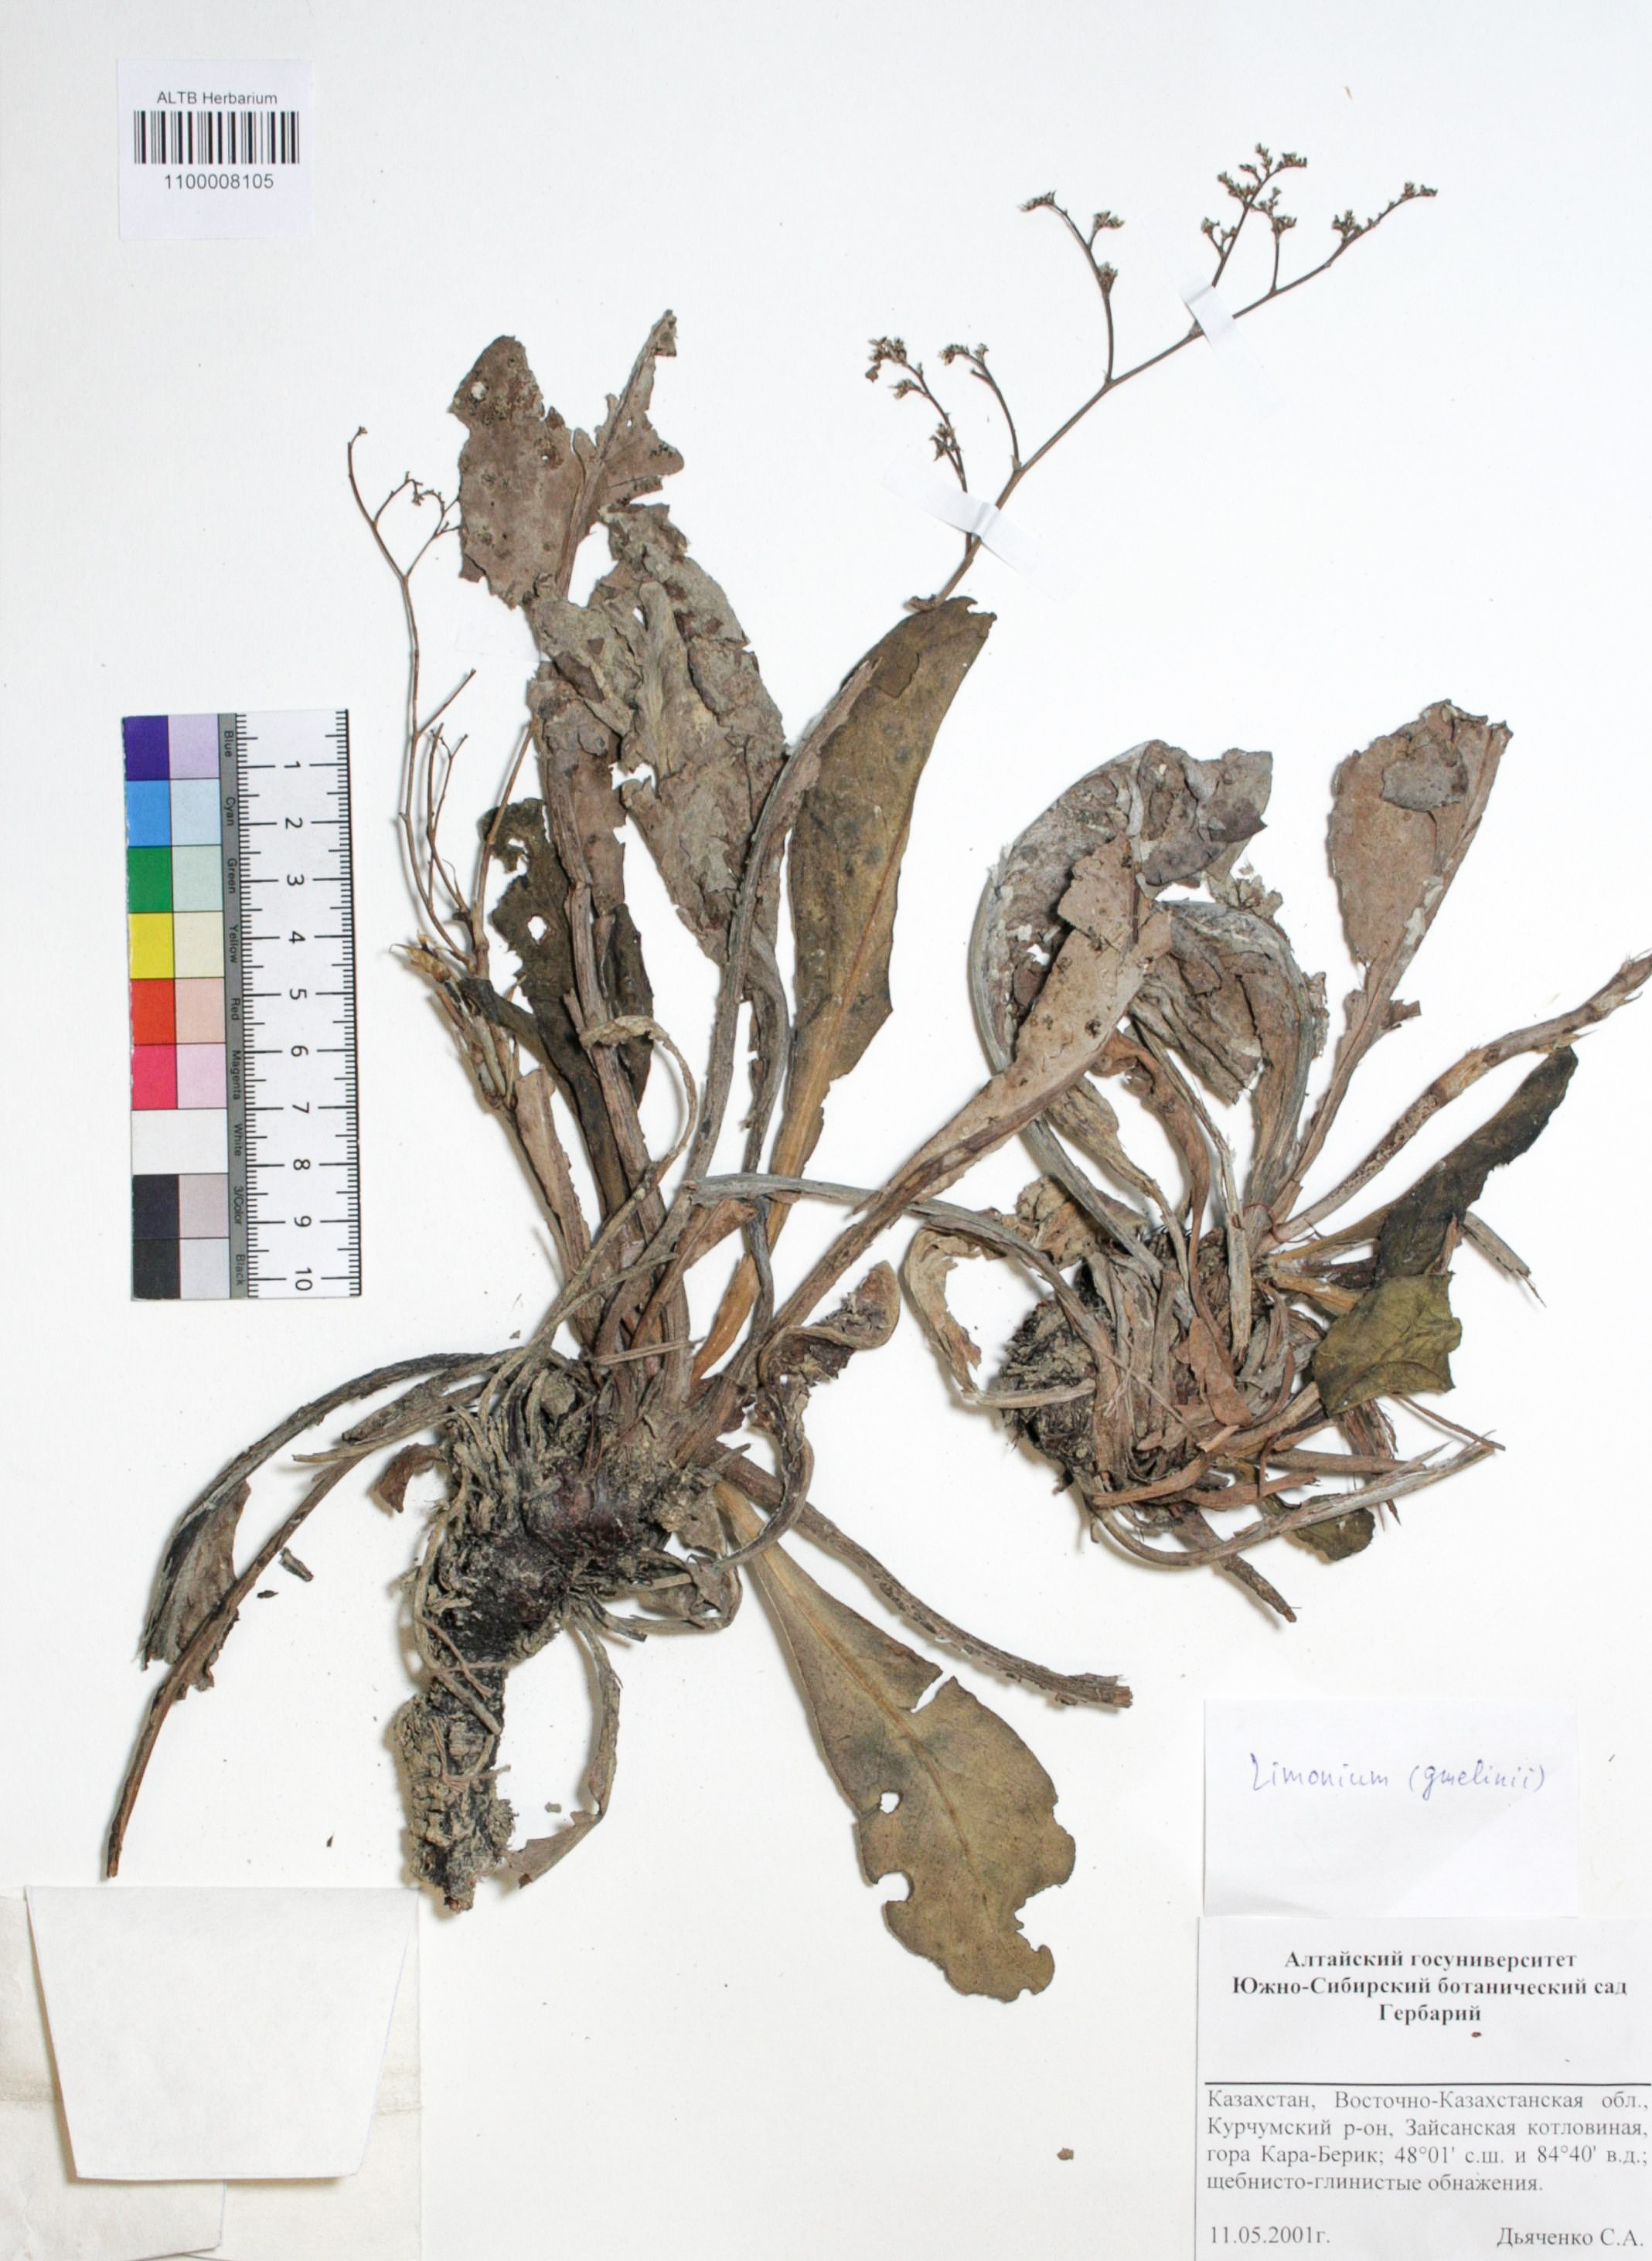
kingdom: Plantae
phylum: Tracheophyta
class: Magnoliopsida
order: Caryophyllales
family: Plumbaginaceae
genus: Limonium
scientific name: Limonium gmelini
